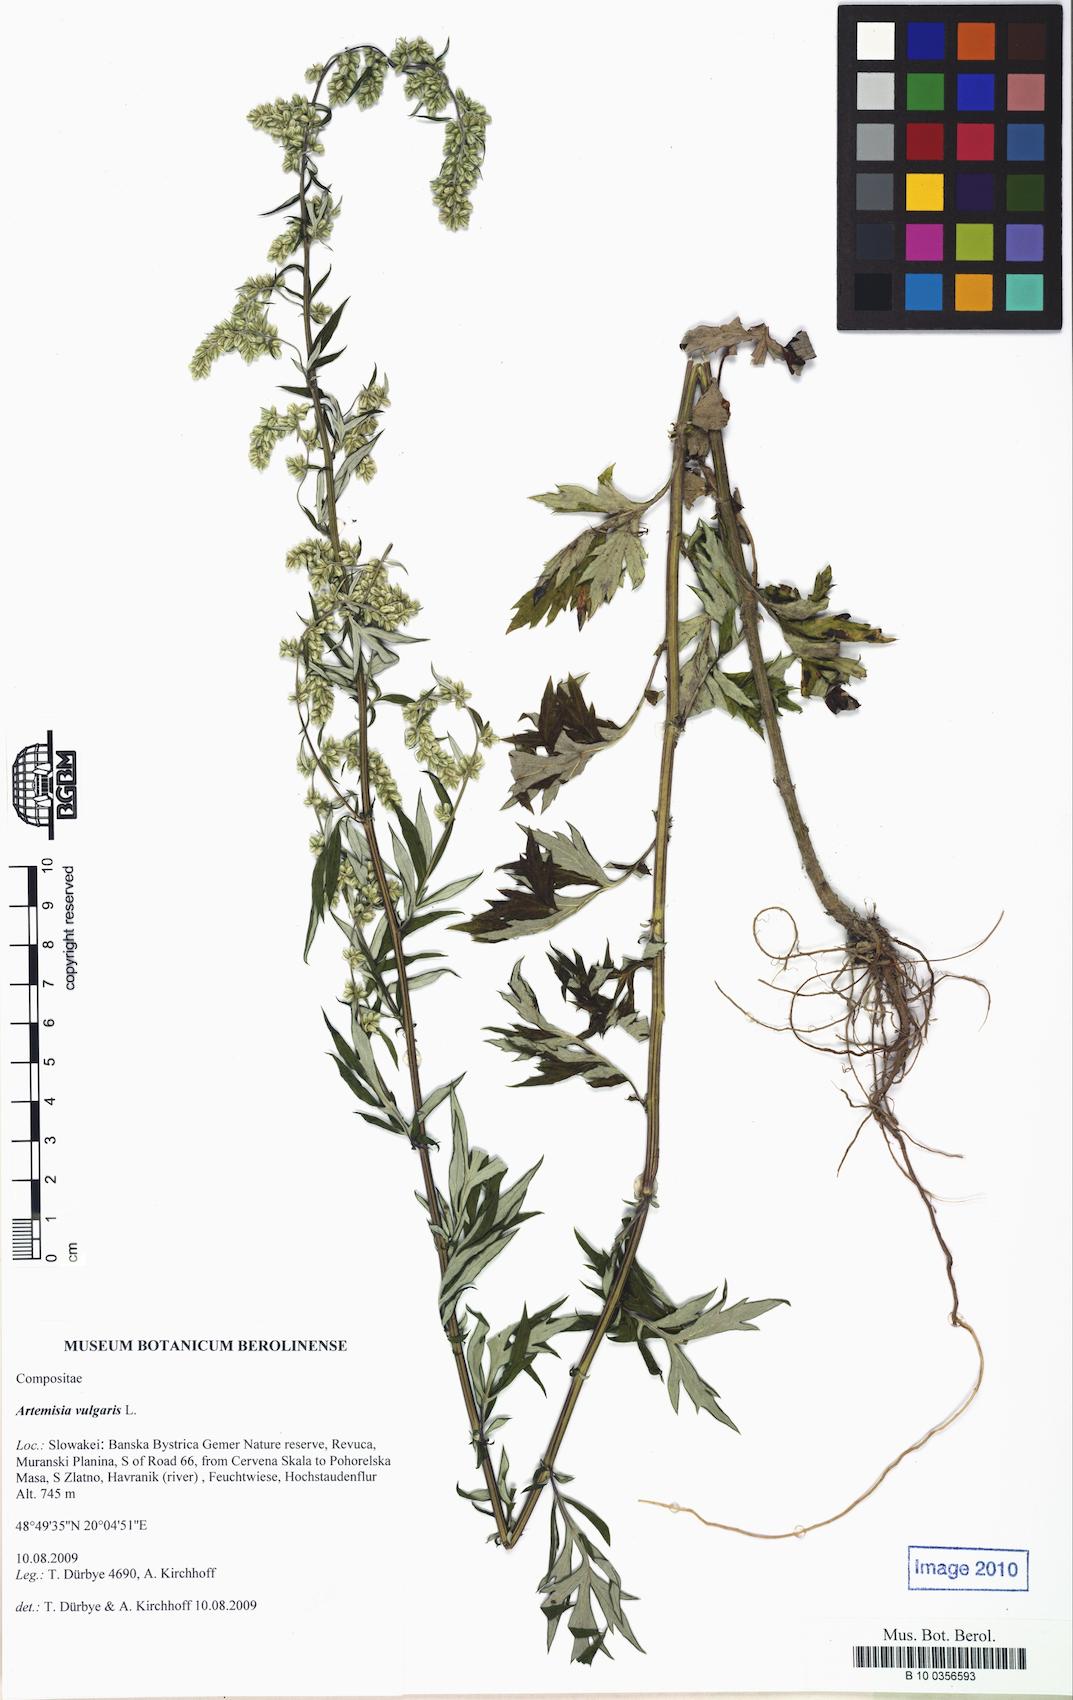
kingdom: Plantae
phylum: Tracheophyta
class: Magnoliopsida
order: Asterales
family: Asteraceae
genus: Artemisia
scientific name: Artemisia vulgaris
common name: Mugwort
